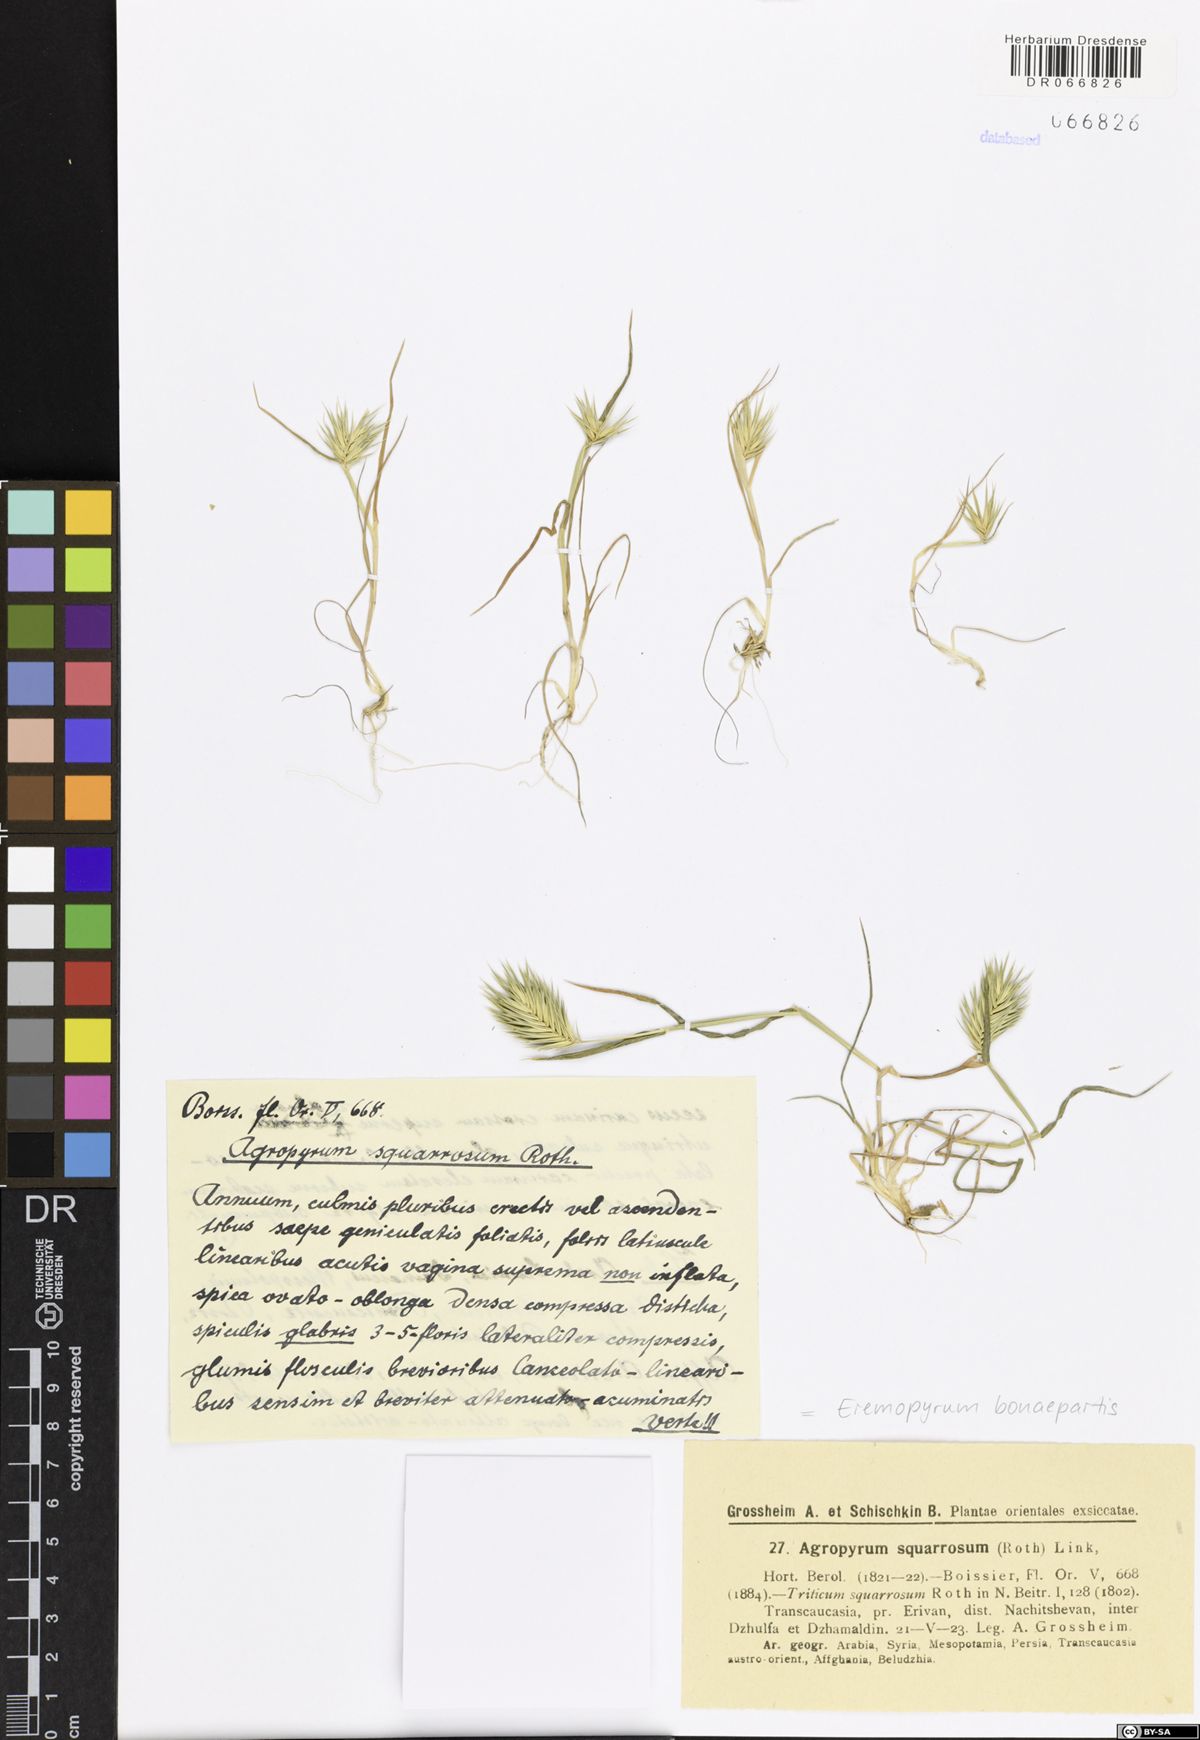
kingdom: Plantae
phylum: Tracheophyta
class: Liliopsida
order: Poales
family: Poaceae
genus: Eremopyrum
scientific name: Eremopyrum bonaepartis
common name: Tapertip false wheatgrass
